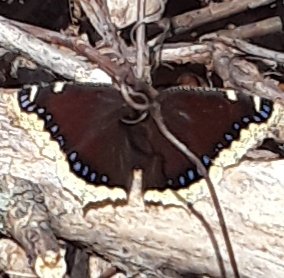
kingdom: Animalia
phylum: Arthropoda
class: Insecta
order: Lepidoptera
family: Nymphalidae
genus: Nymphalis
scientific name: Nymphalis antiopa
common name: Mourning Cloak
